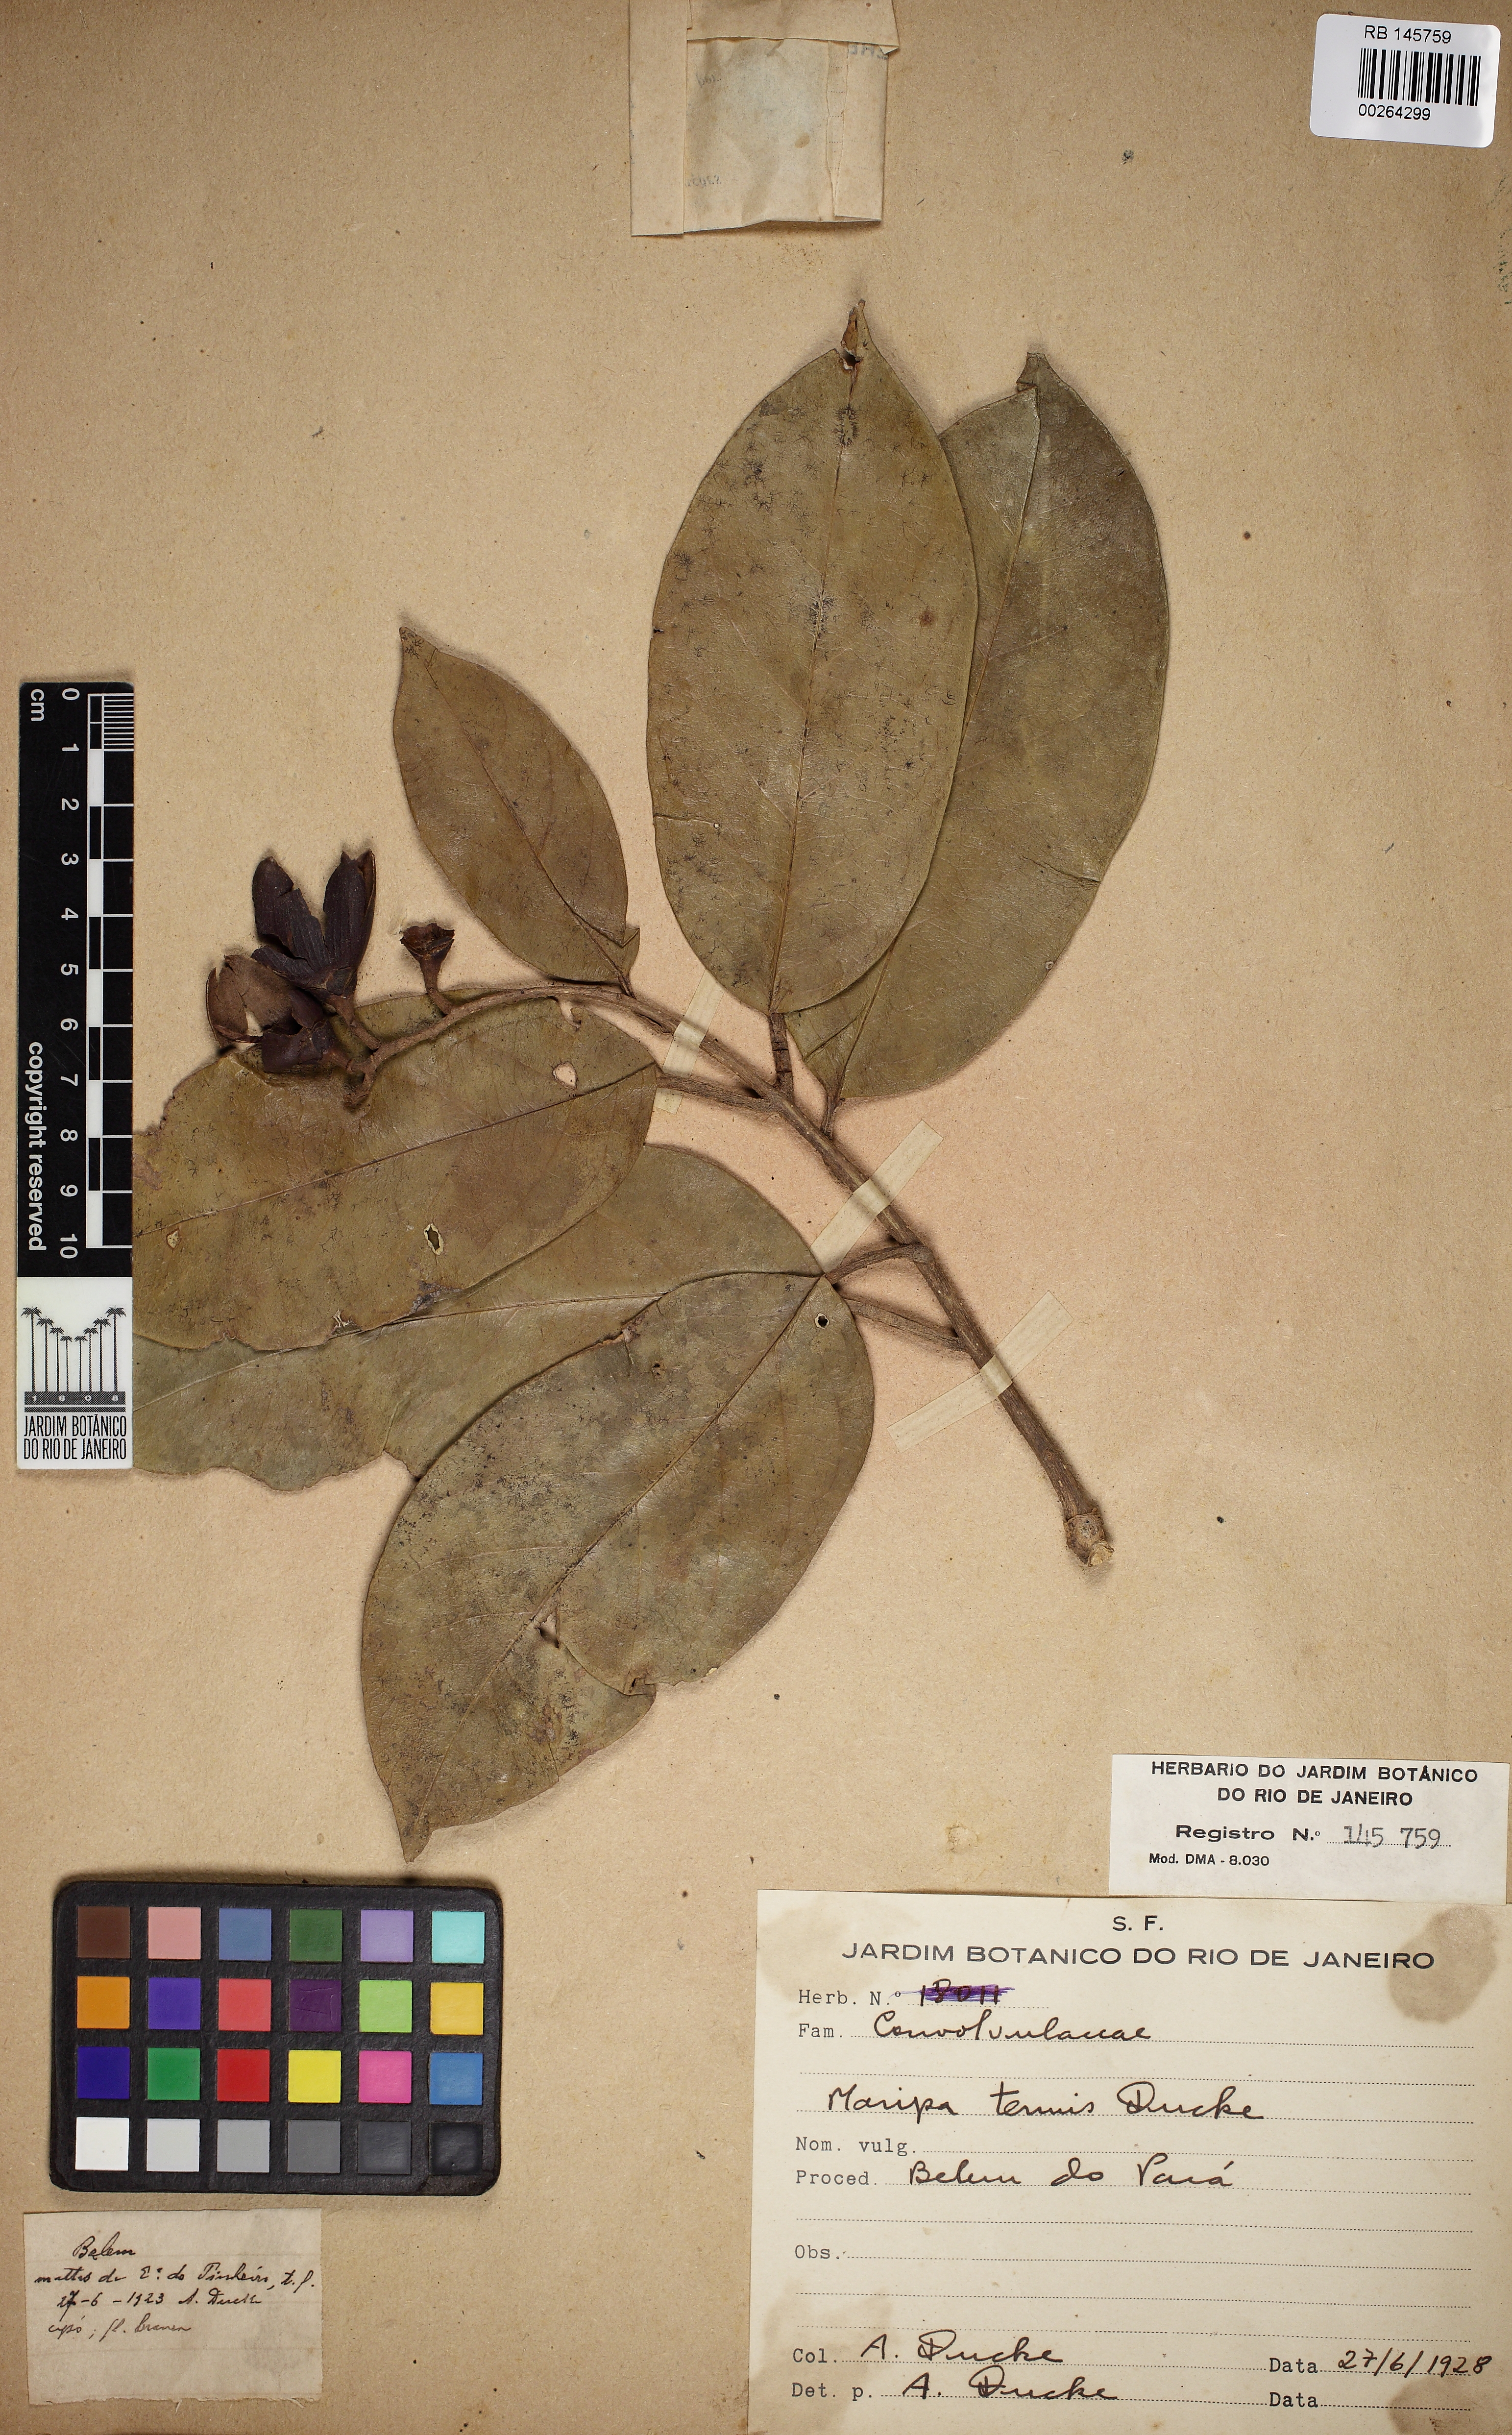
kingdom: Plantae
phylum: Tracheophyta
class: Magnoliopsida
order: Solanales
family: Convolvulaceae
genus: Maripa
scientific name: Maripa glabra
